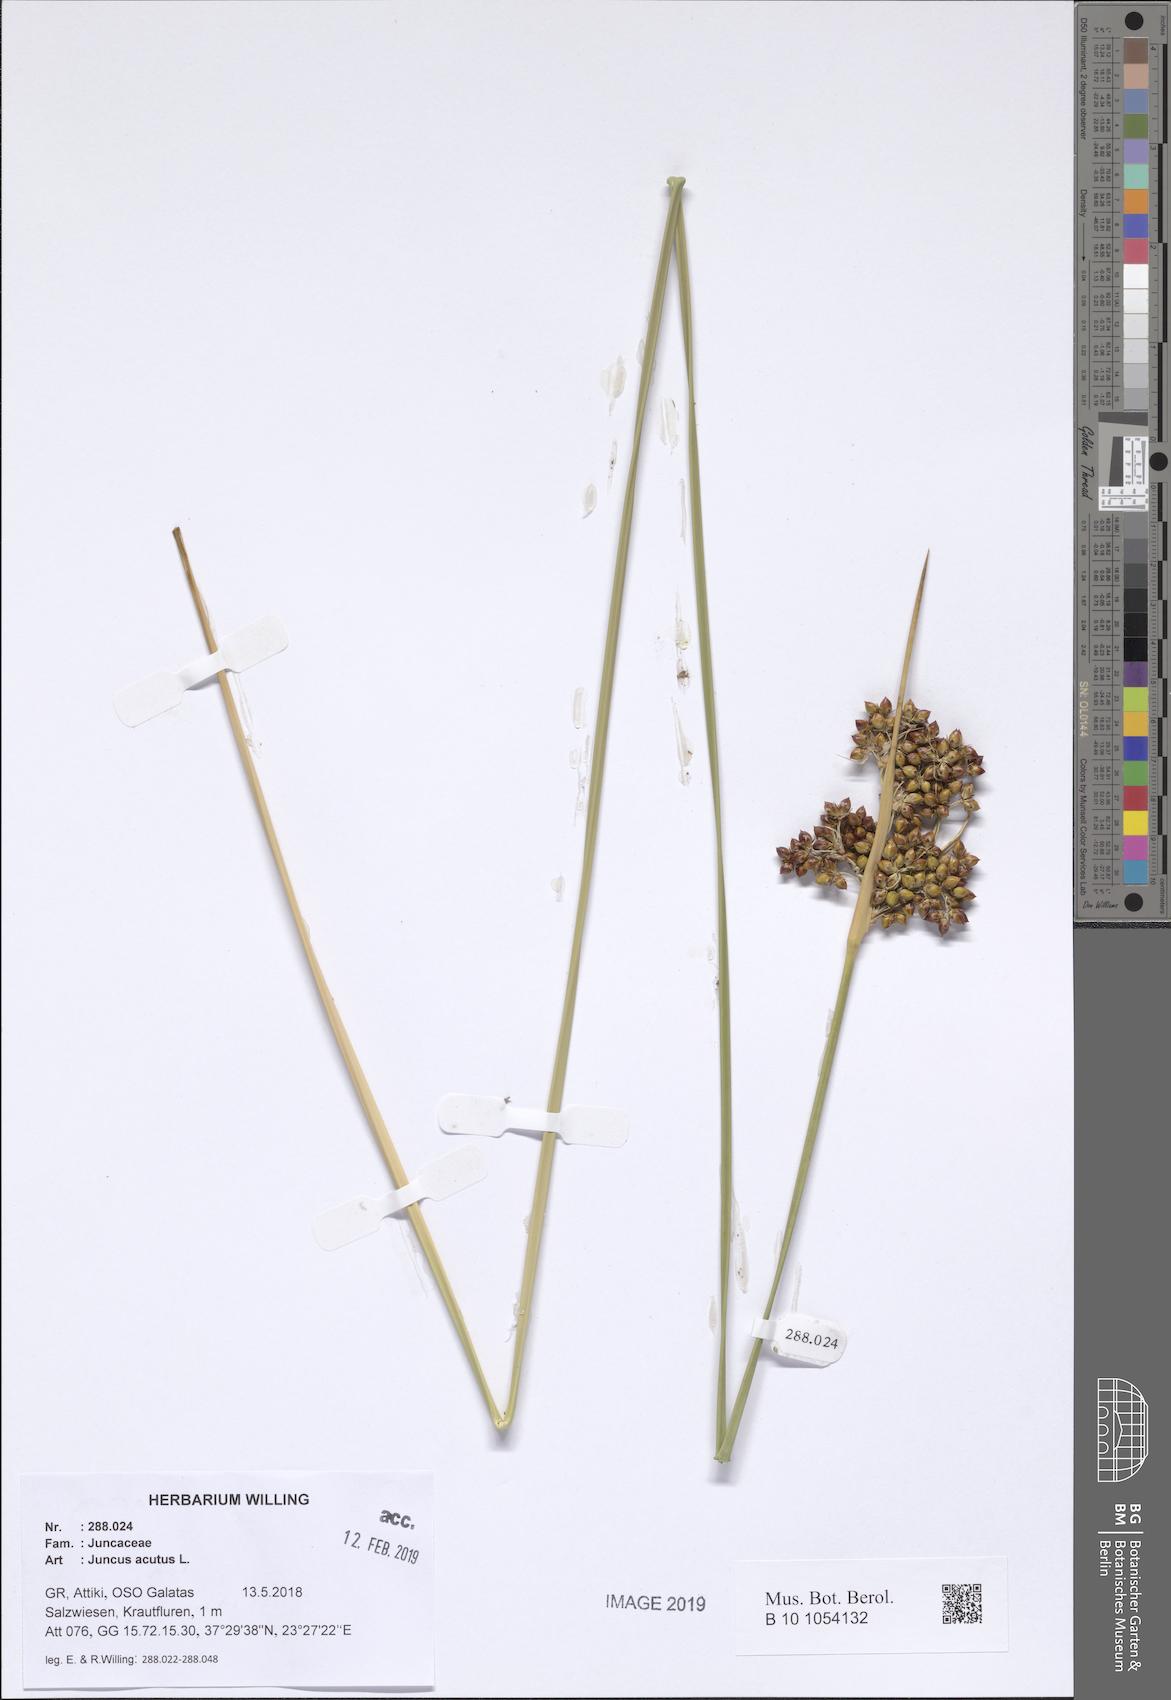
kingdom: Plantae
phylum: Tracheophyta
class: Liliopsida
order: Poales
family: Juncaceae
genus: Juncus
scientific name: Juncus acutus
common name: Sharp rush
